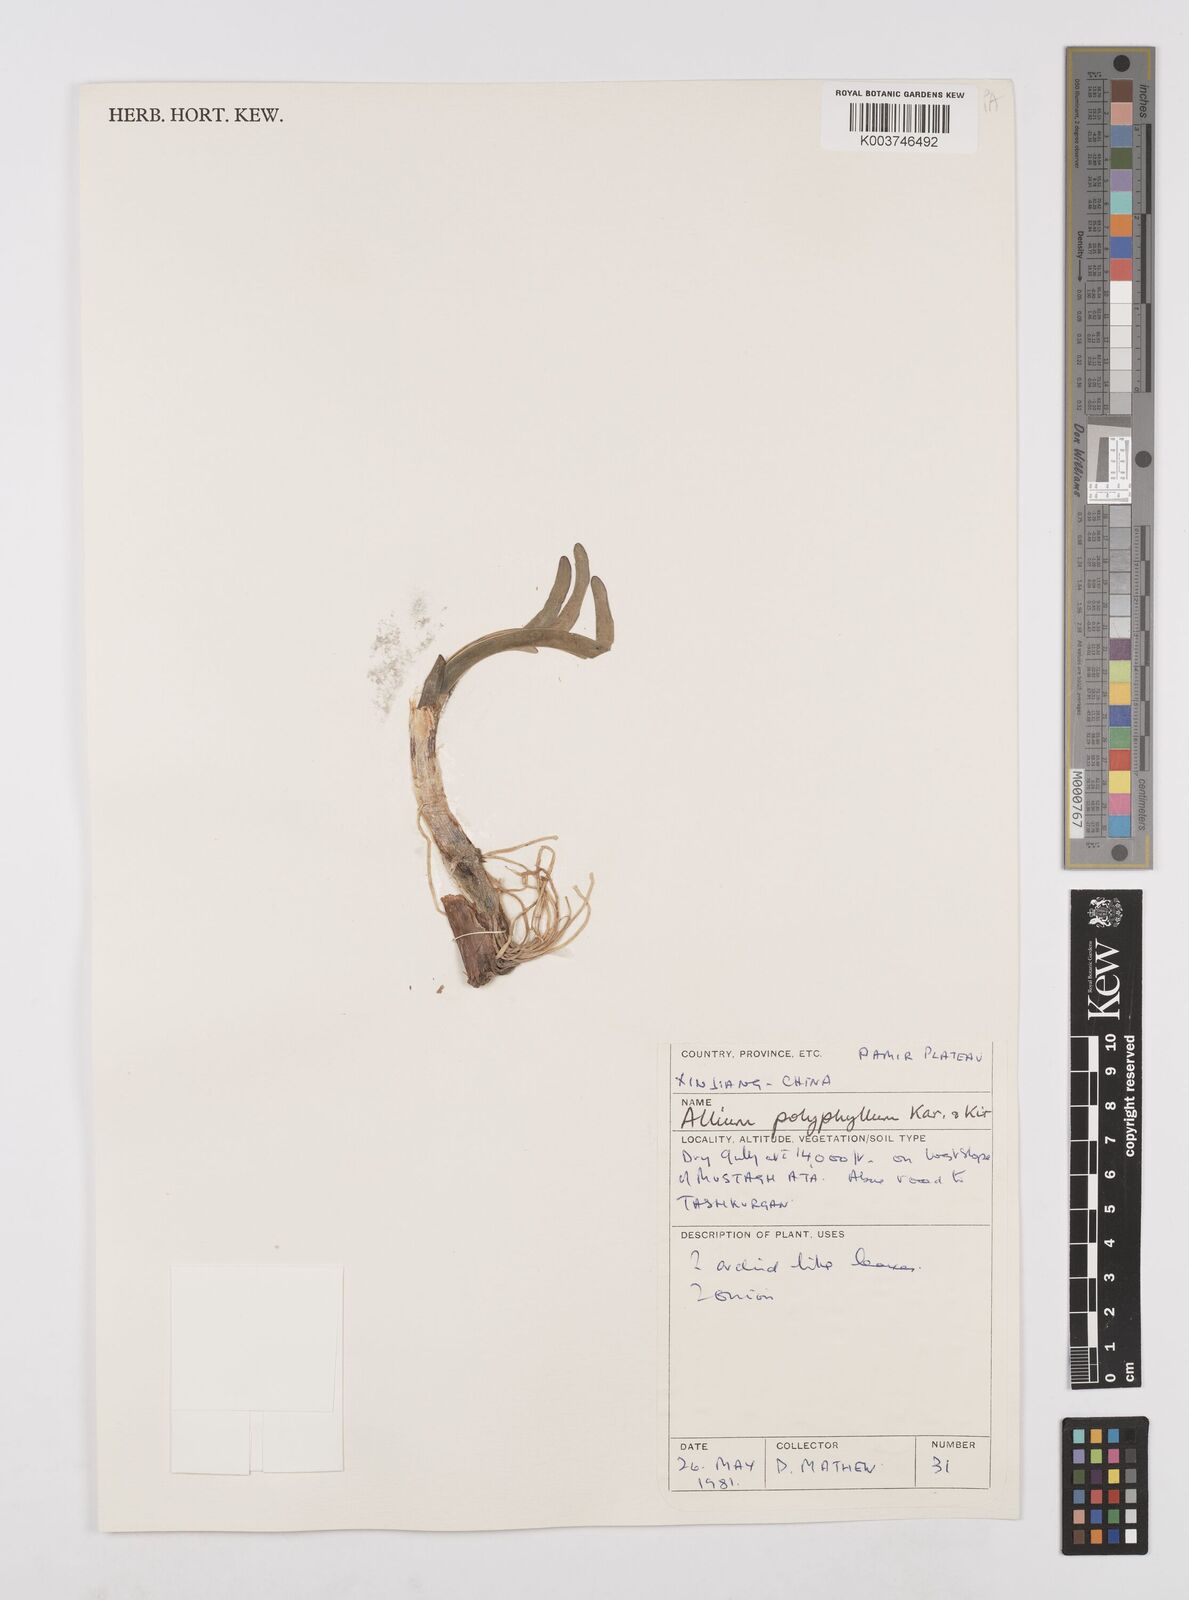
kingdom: Plantae
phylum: Tracheophyta
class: Liliopsida
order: Asparagales
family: Amaryllidaceae
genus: Allium
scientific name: Allium carolinianum
